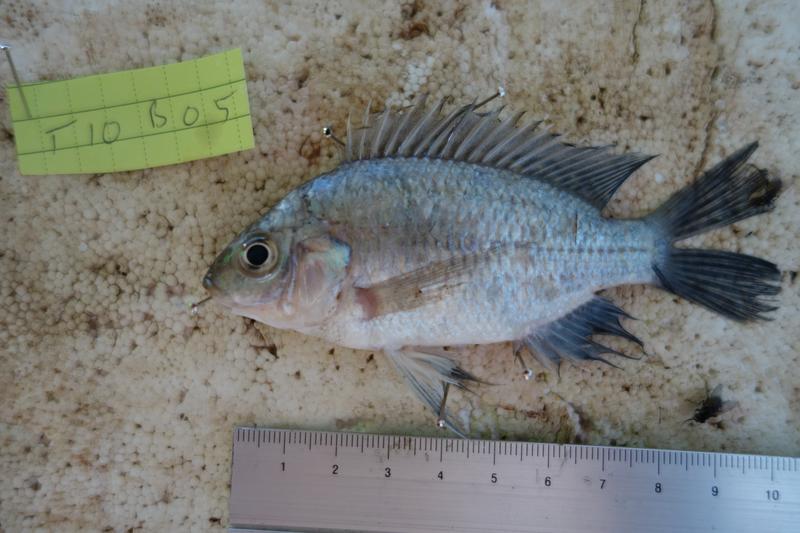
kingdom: Animalia
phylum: Chordata
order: Perciformes
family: Cichlidae
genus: Oreochromis
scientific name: Oreochromis rukwaensis
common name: Lake rukwa tilapia
